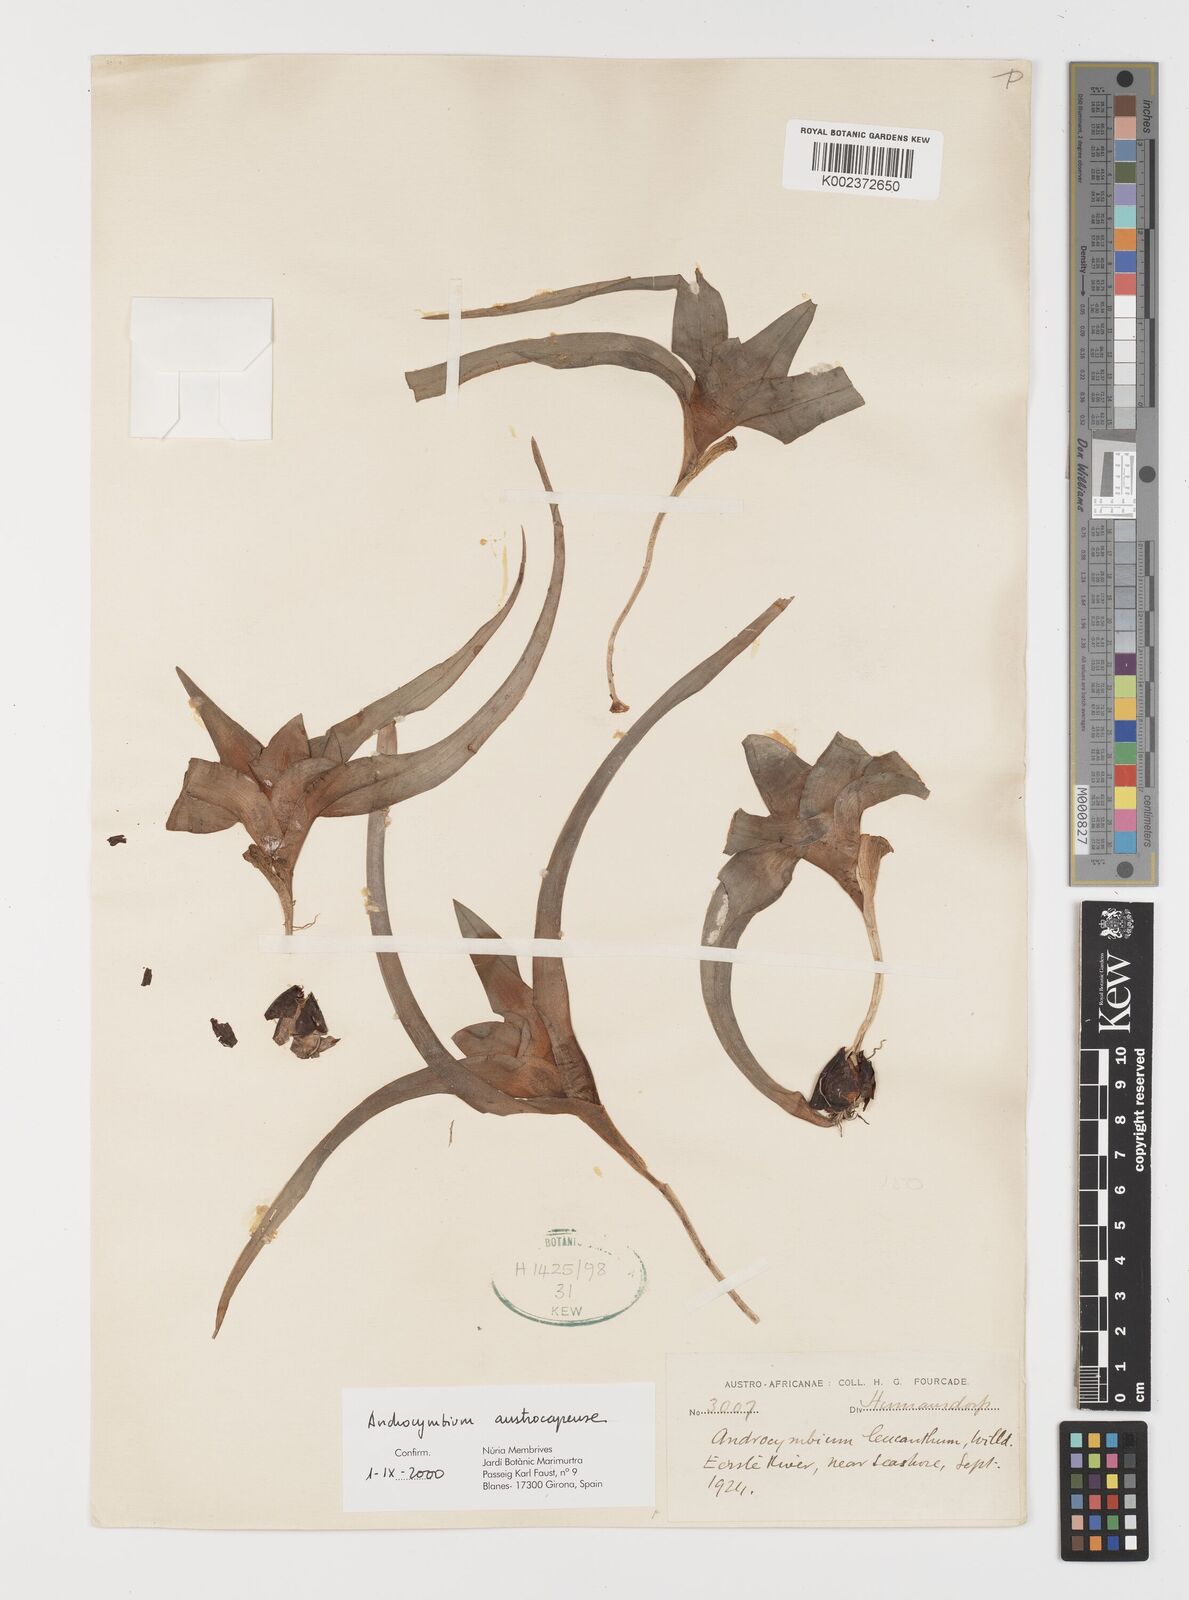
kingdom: Plantae
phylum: Tracheophyta
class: Liliopsida
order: Liliales
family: Colchicaceae
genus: Colchicum
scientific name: Colchicum austrocapense
